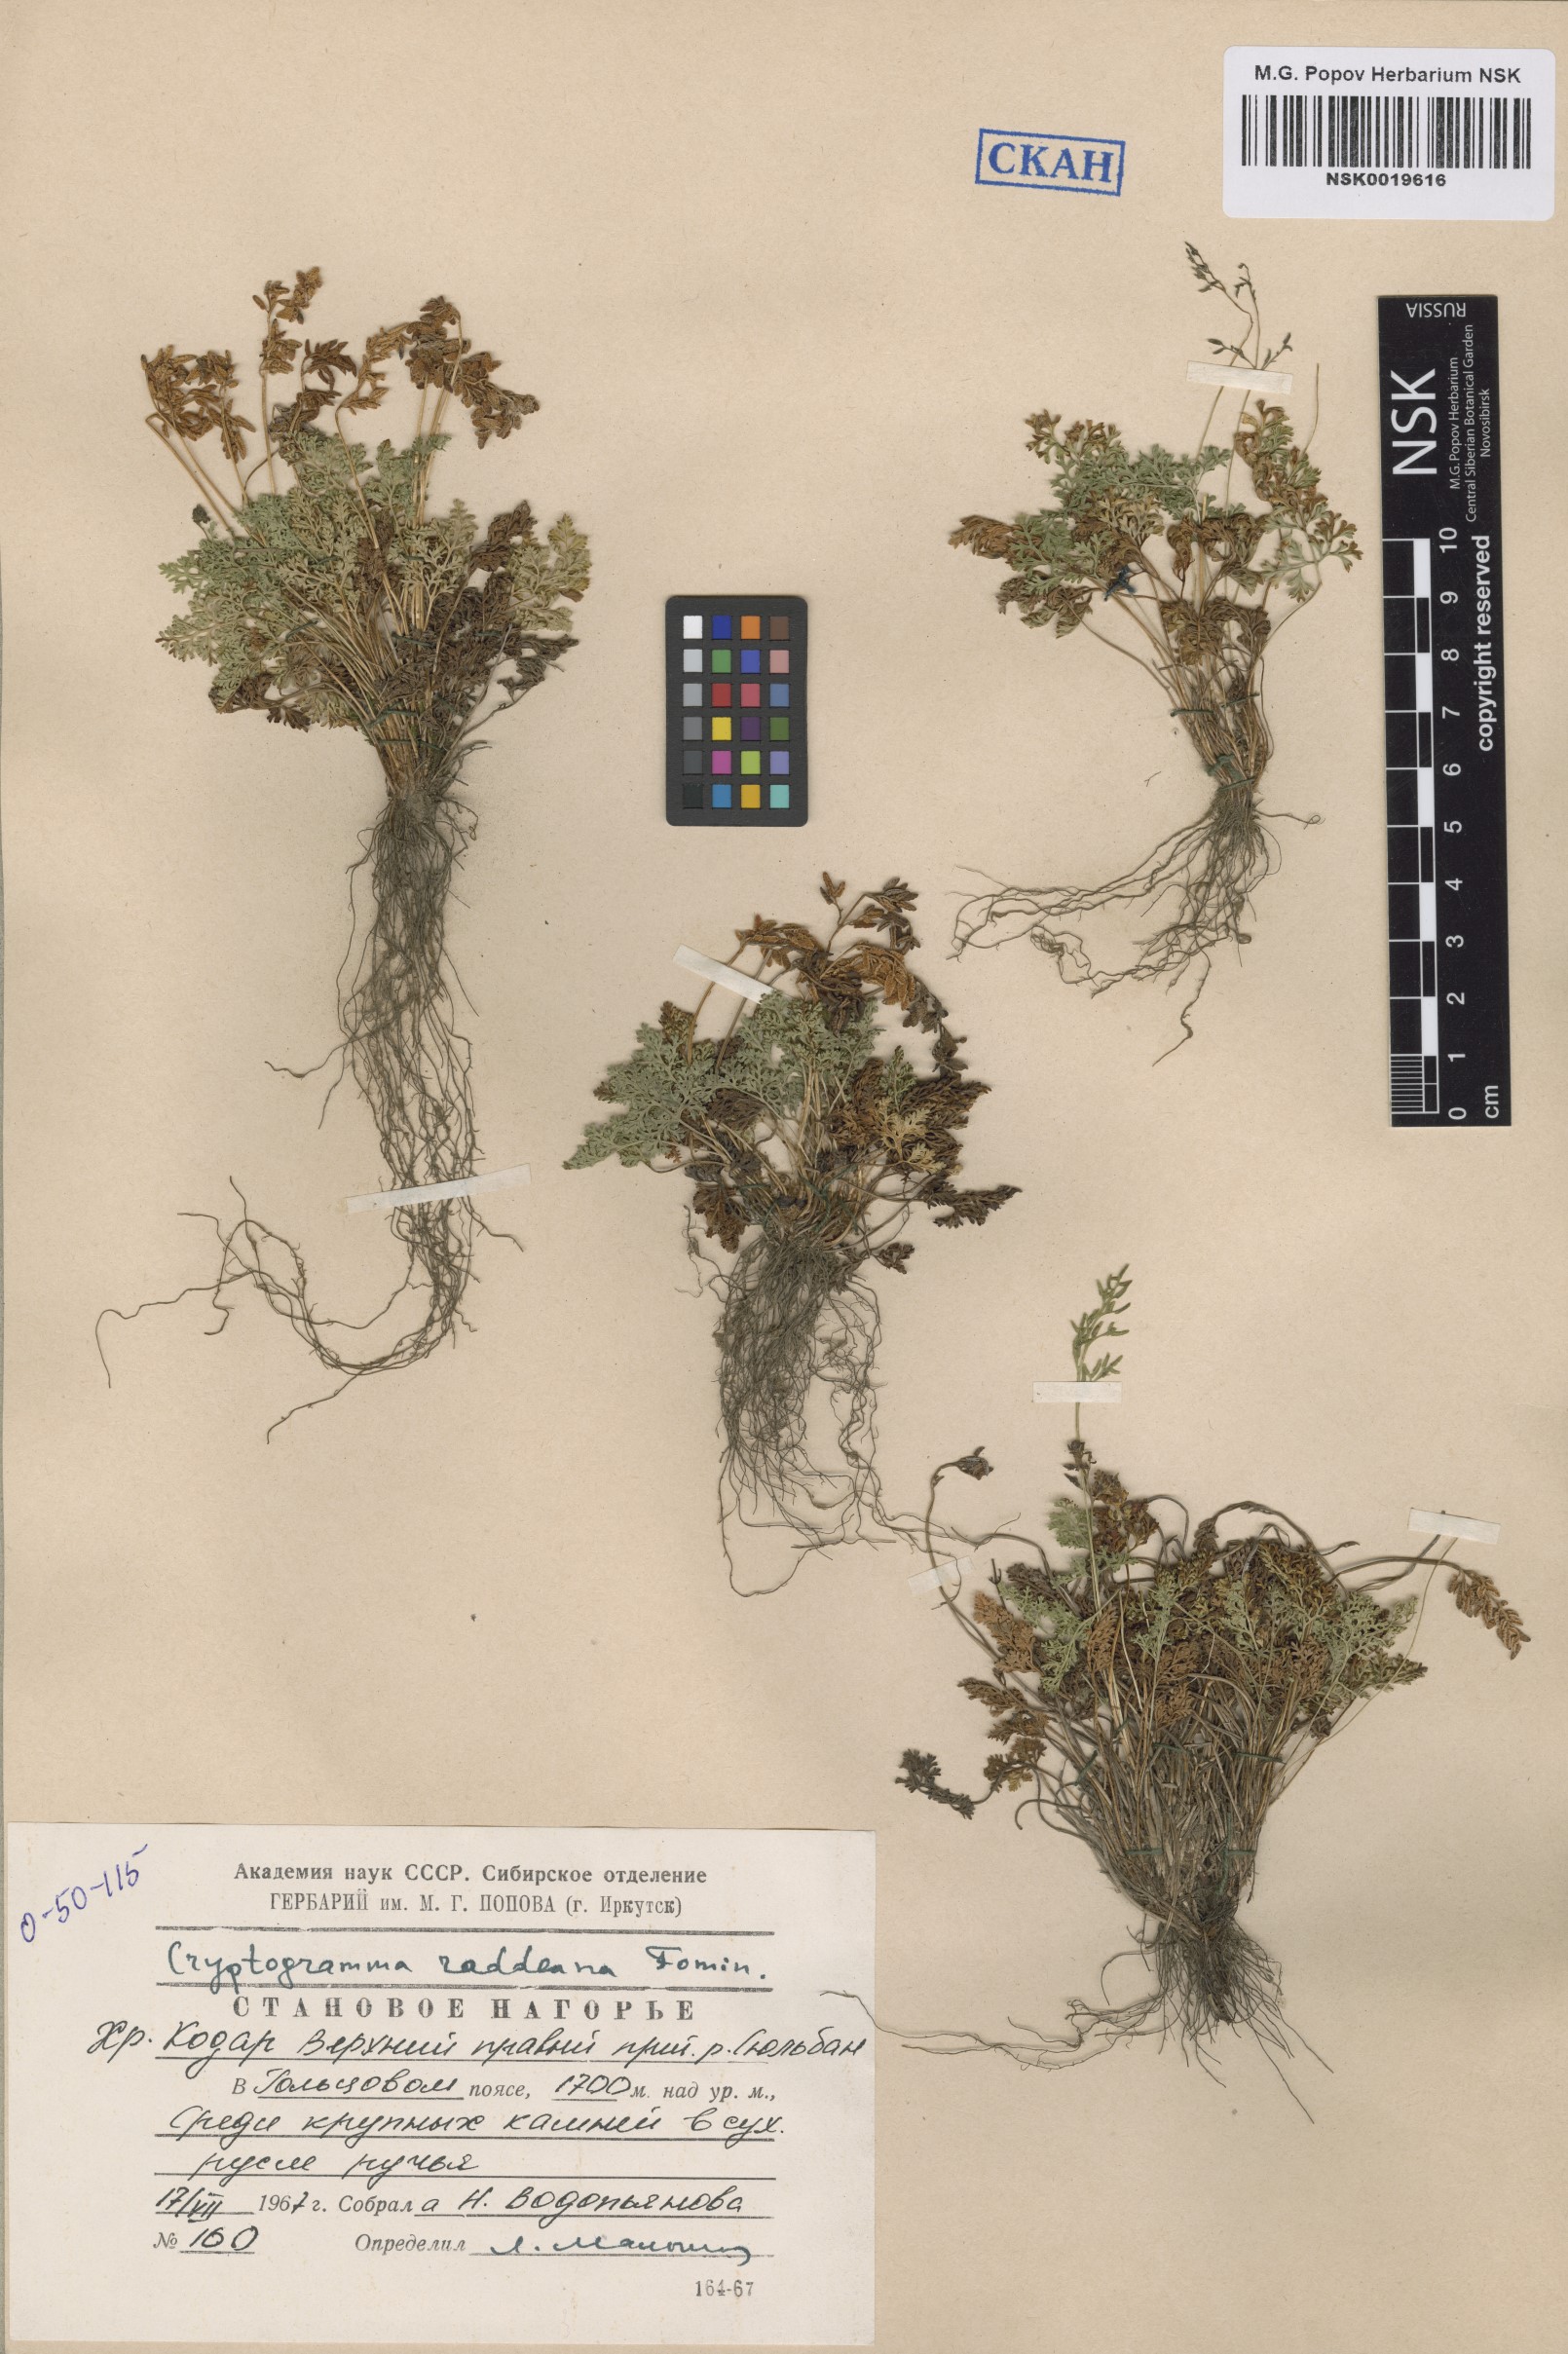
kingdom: Plantae
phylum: Tracheophyta
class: Polypodiopsida
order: Polypodiales
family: Pteridaceae
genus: Cryptogramma
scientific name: Cryptogramma brunoniana
